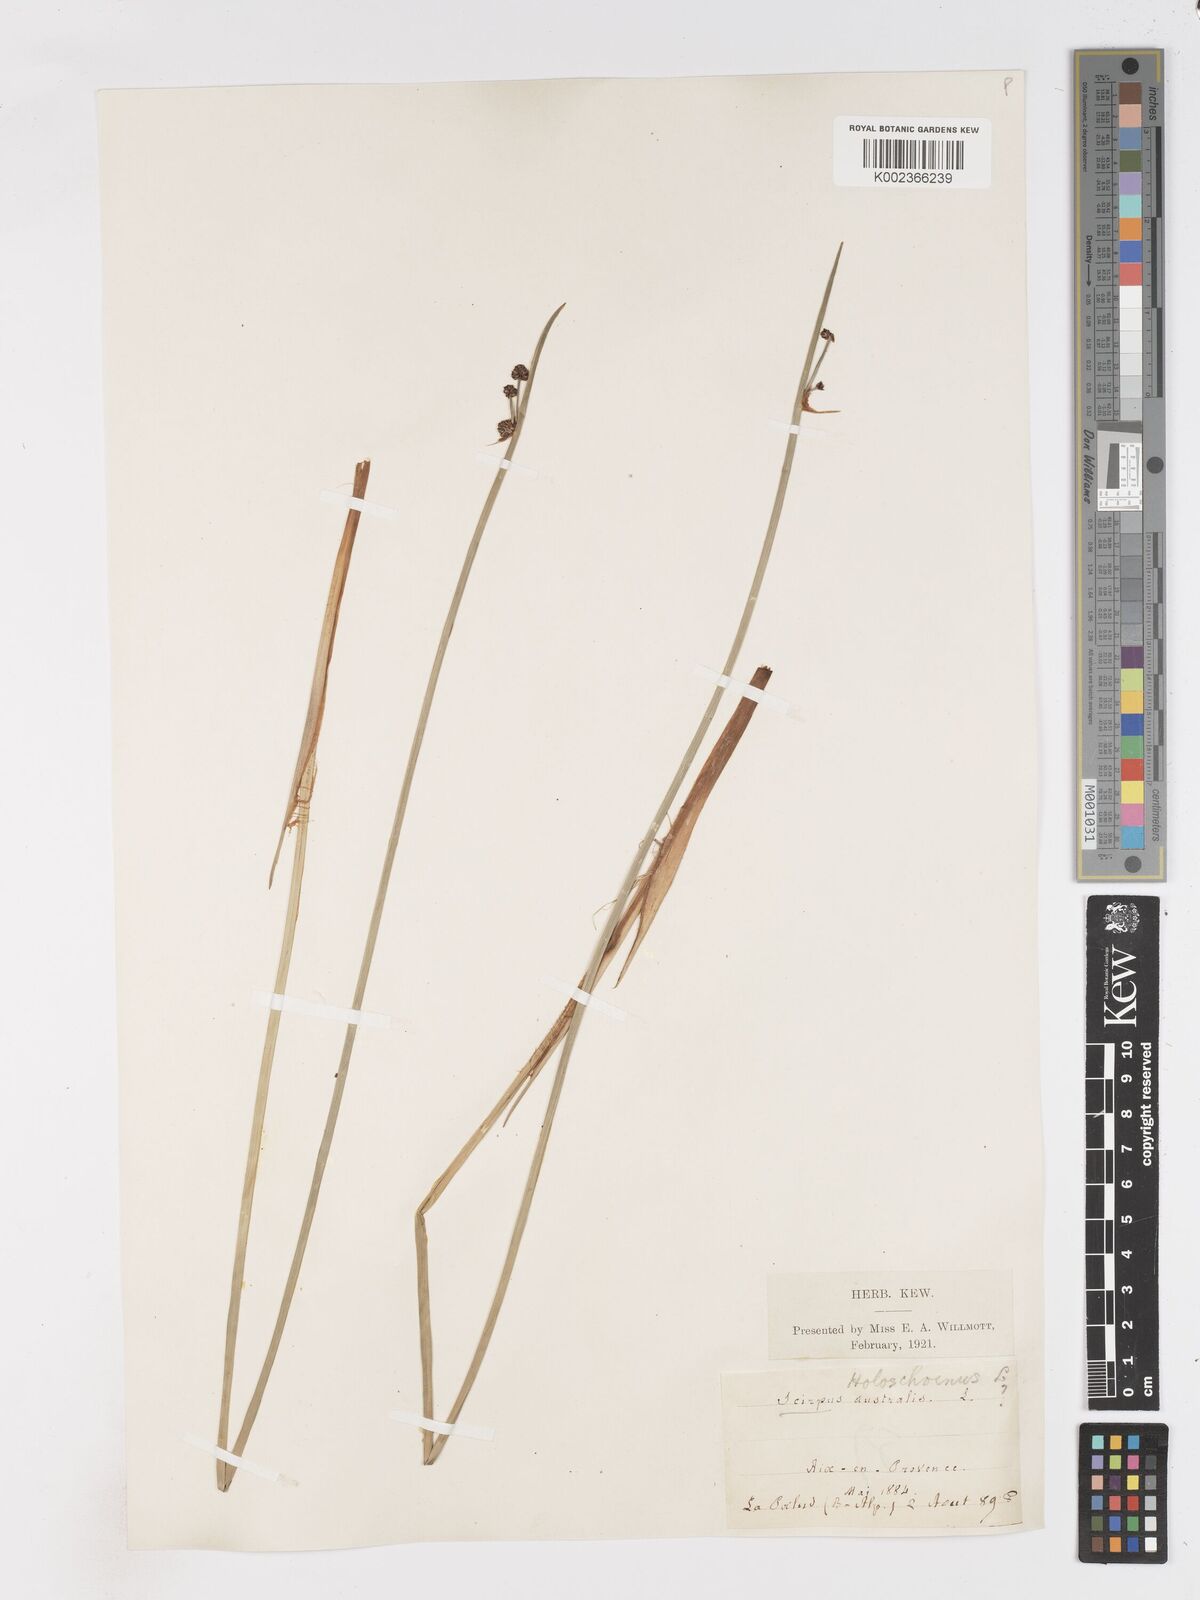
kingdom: Plantae
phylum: Tracheophyta
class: Liliopsida
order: Poales
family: Cyperaceae
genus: Scirpoides
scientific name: Scirpoides holoschoenus
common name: Round-headed club-rush
